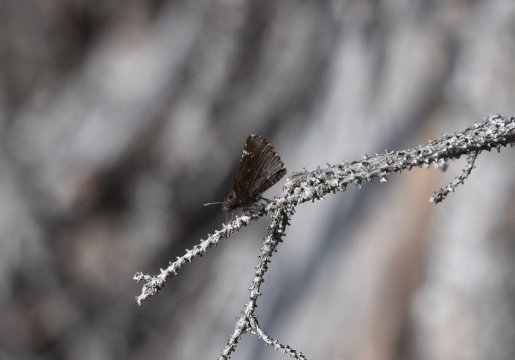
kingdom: Animalia
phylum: Arthropoda
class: Insecta
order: Lepidoptera
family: Hesperiidae
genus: Mastor
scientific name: Mastor vialis
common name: Common Roadside-Skipper
